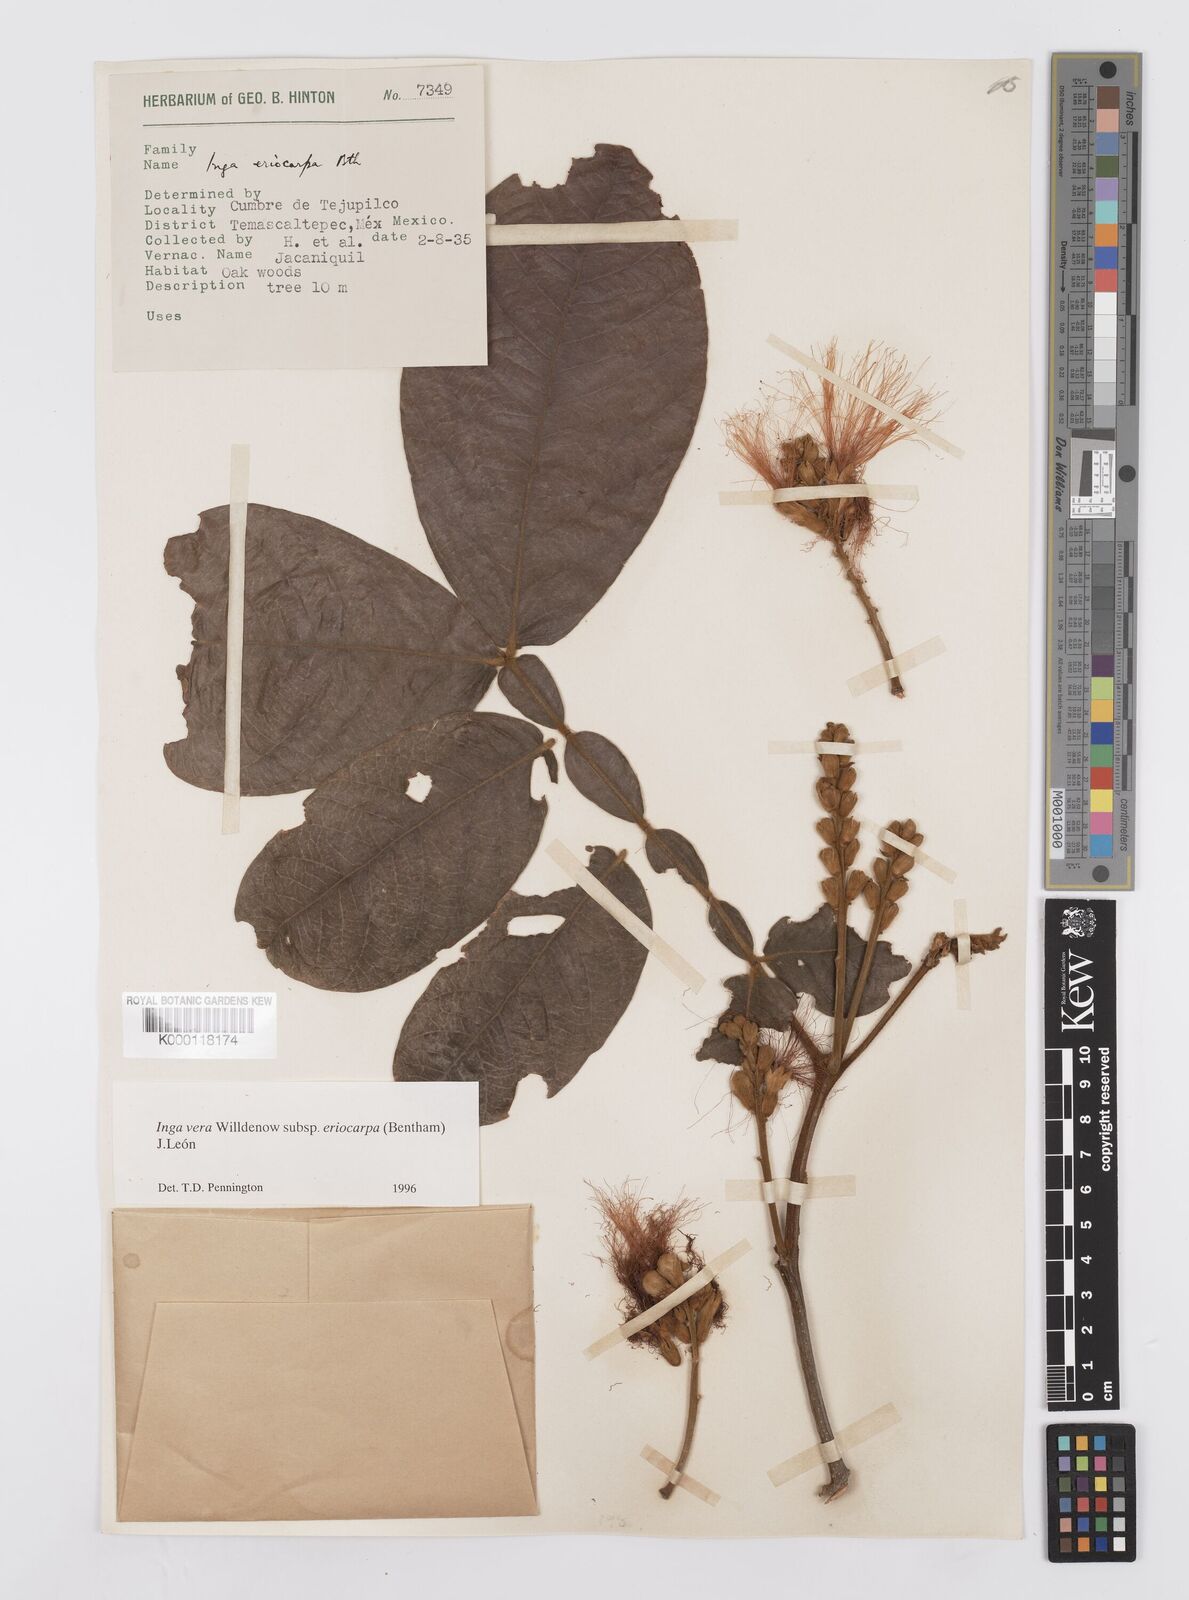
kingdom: Plantae
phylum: Tracheophyta
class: Magnoliopsida
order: Fabales
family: Fabaceae
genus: Inga
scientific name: Inga vera
